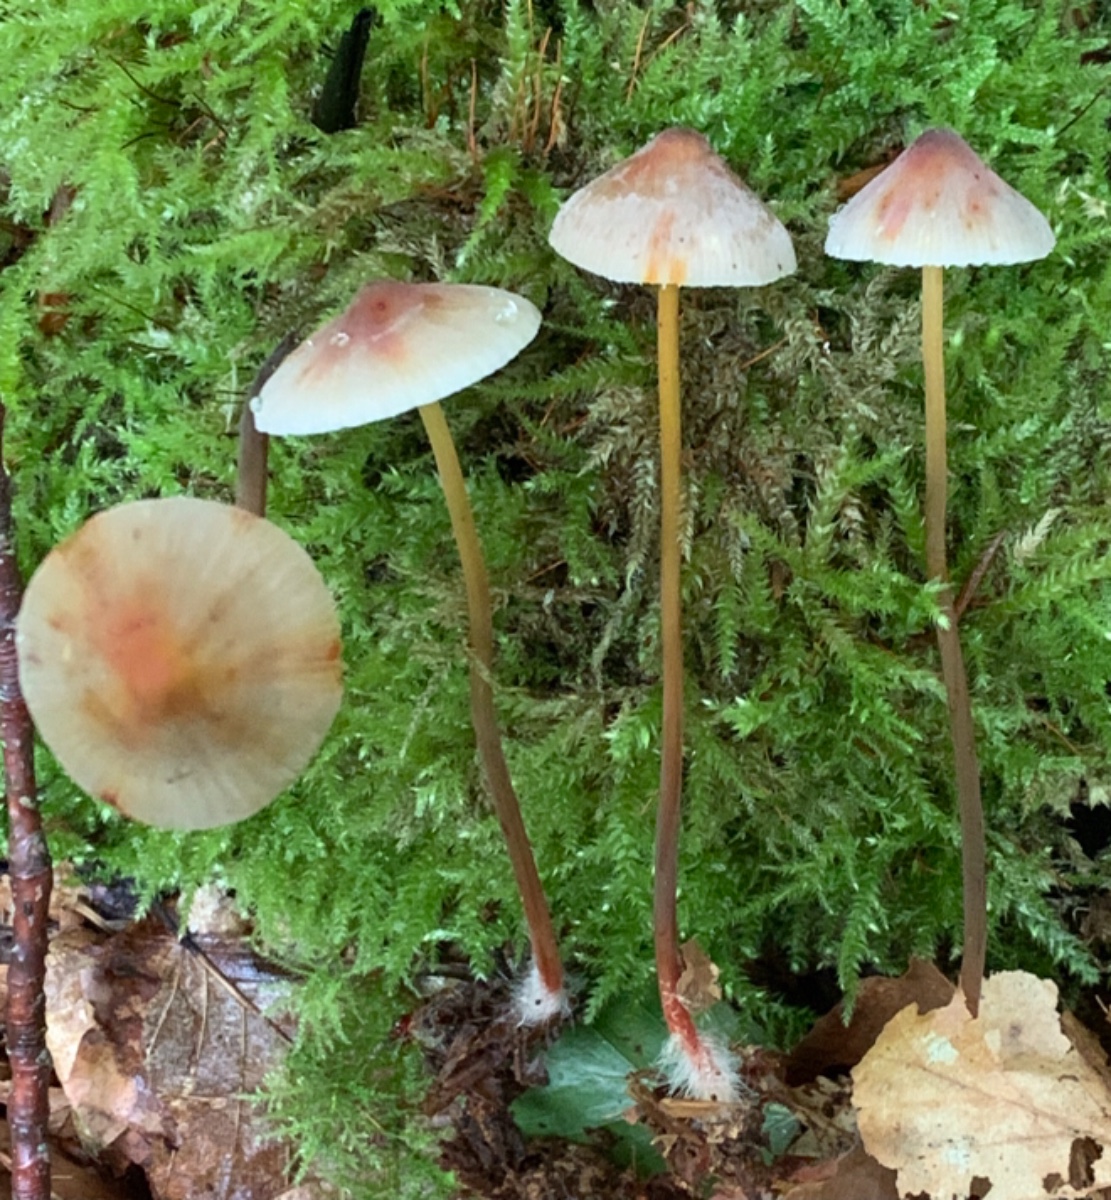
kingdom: Fungi
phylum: Basidiomycota
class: Agaricomycetes
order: Agaricales
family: Mycenaceae
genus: Mycena
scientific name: Mycena crocata
